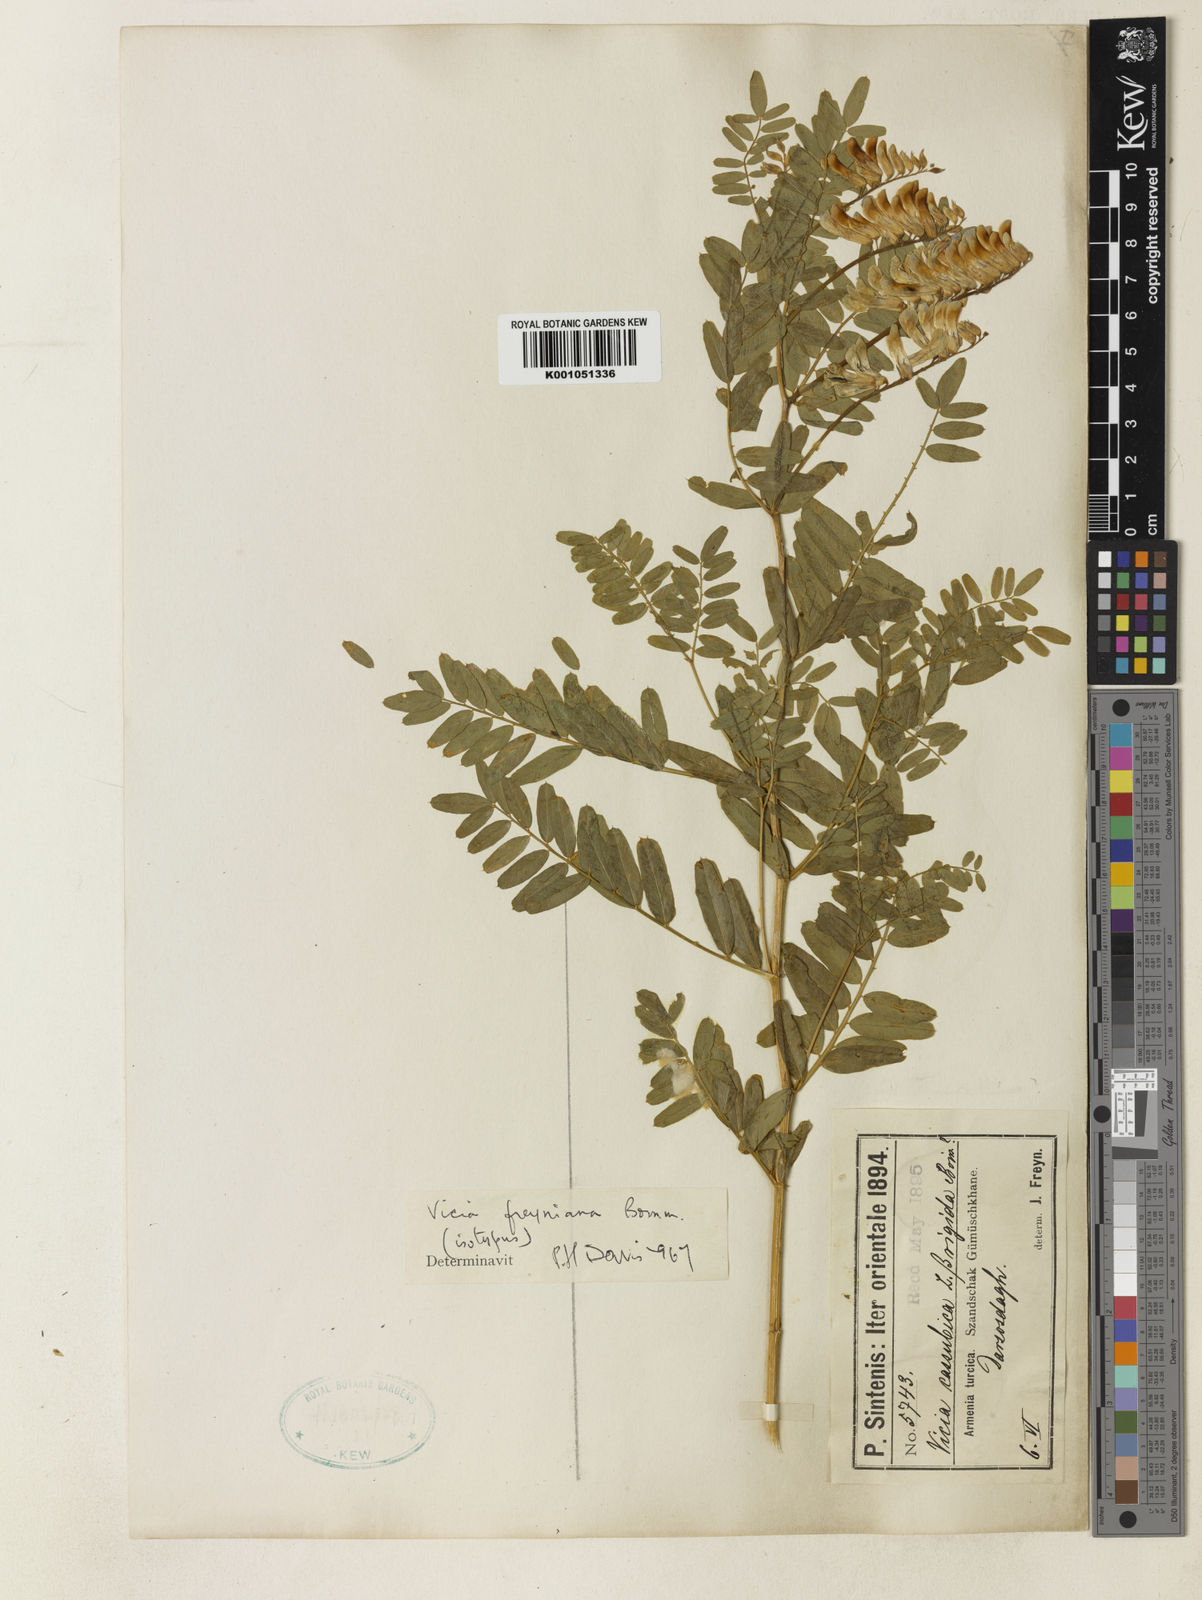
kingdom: Plantae
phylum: Tracheophyta
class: Magnoliopsida
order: Fabales
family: Fabaceae
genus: Vicia
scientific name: Vicia freyniana
